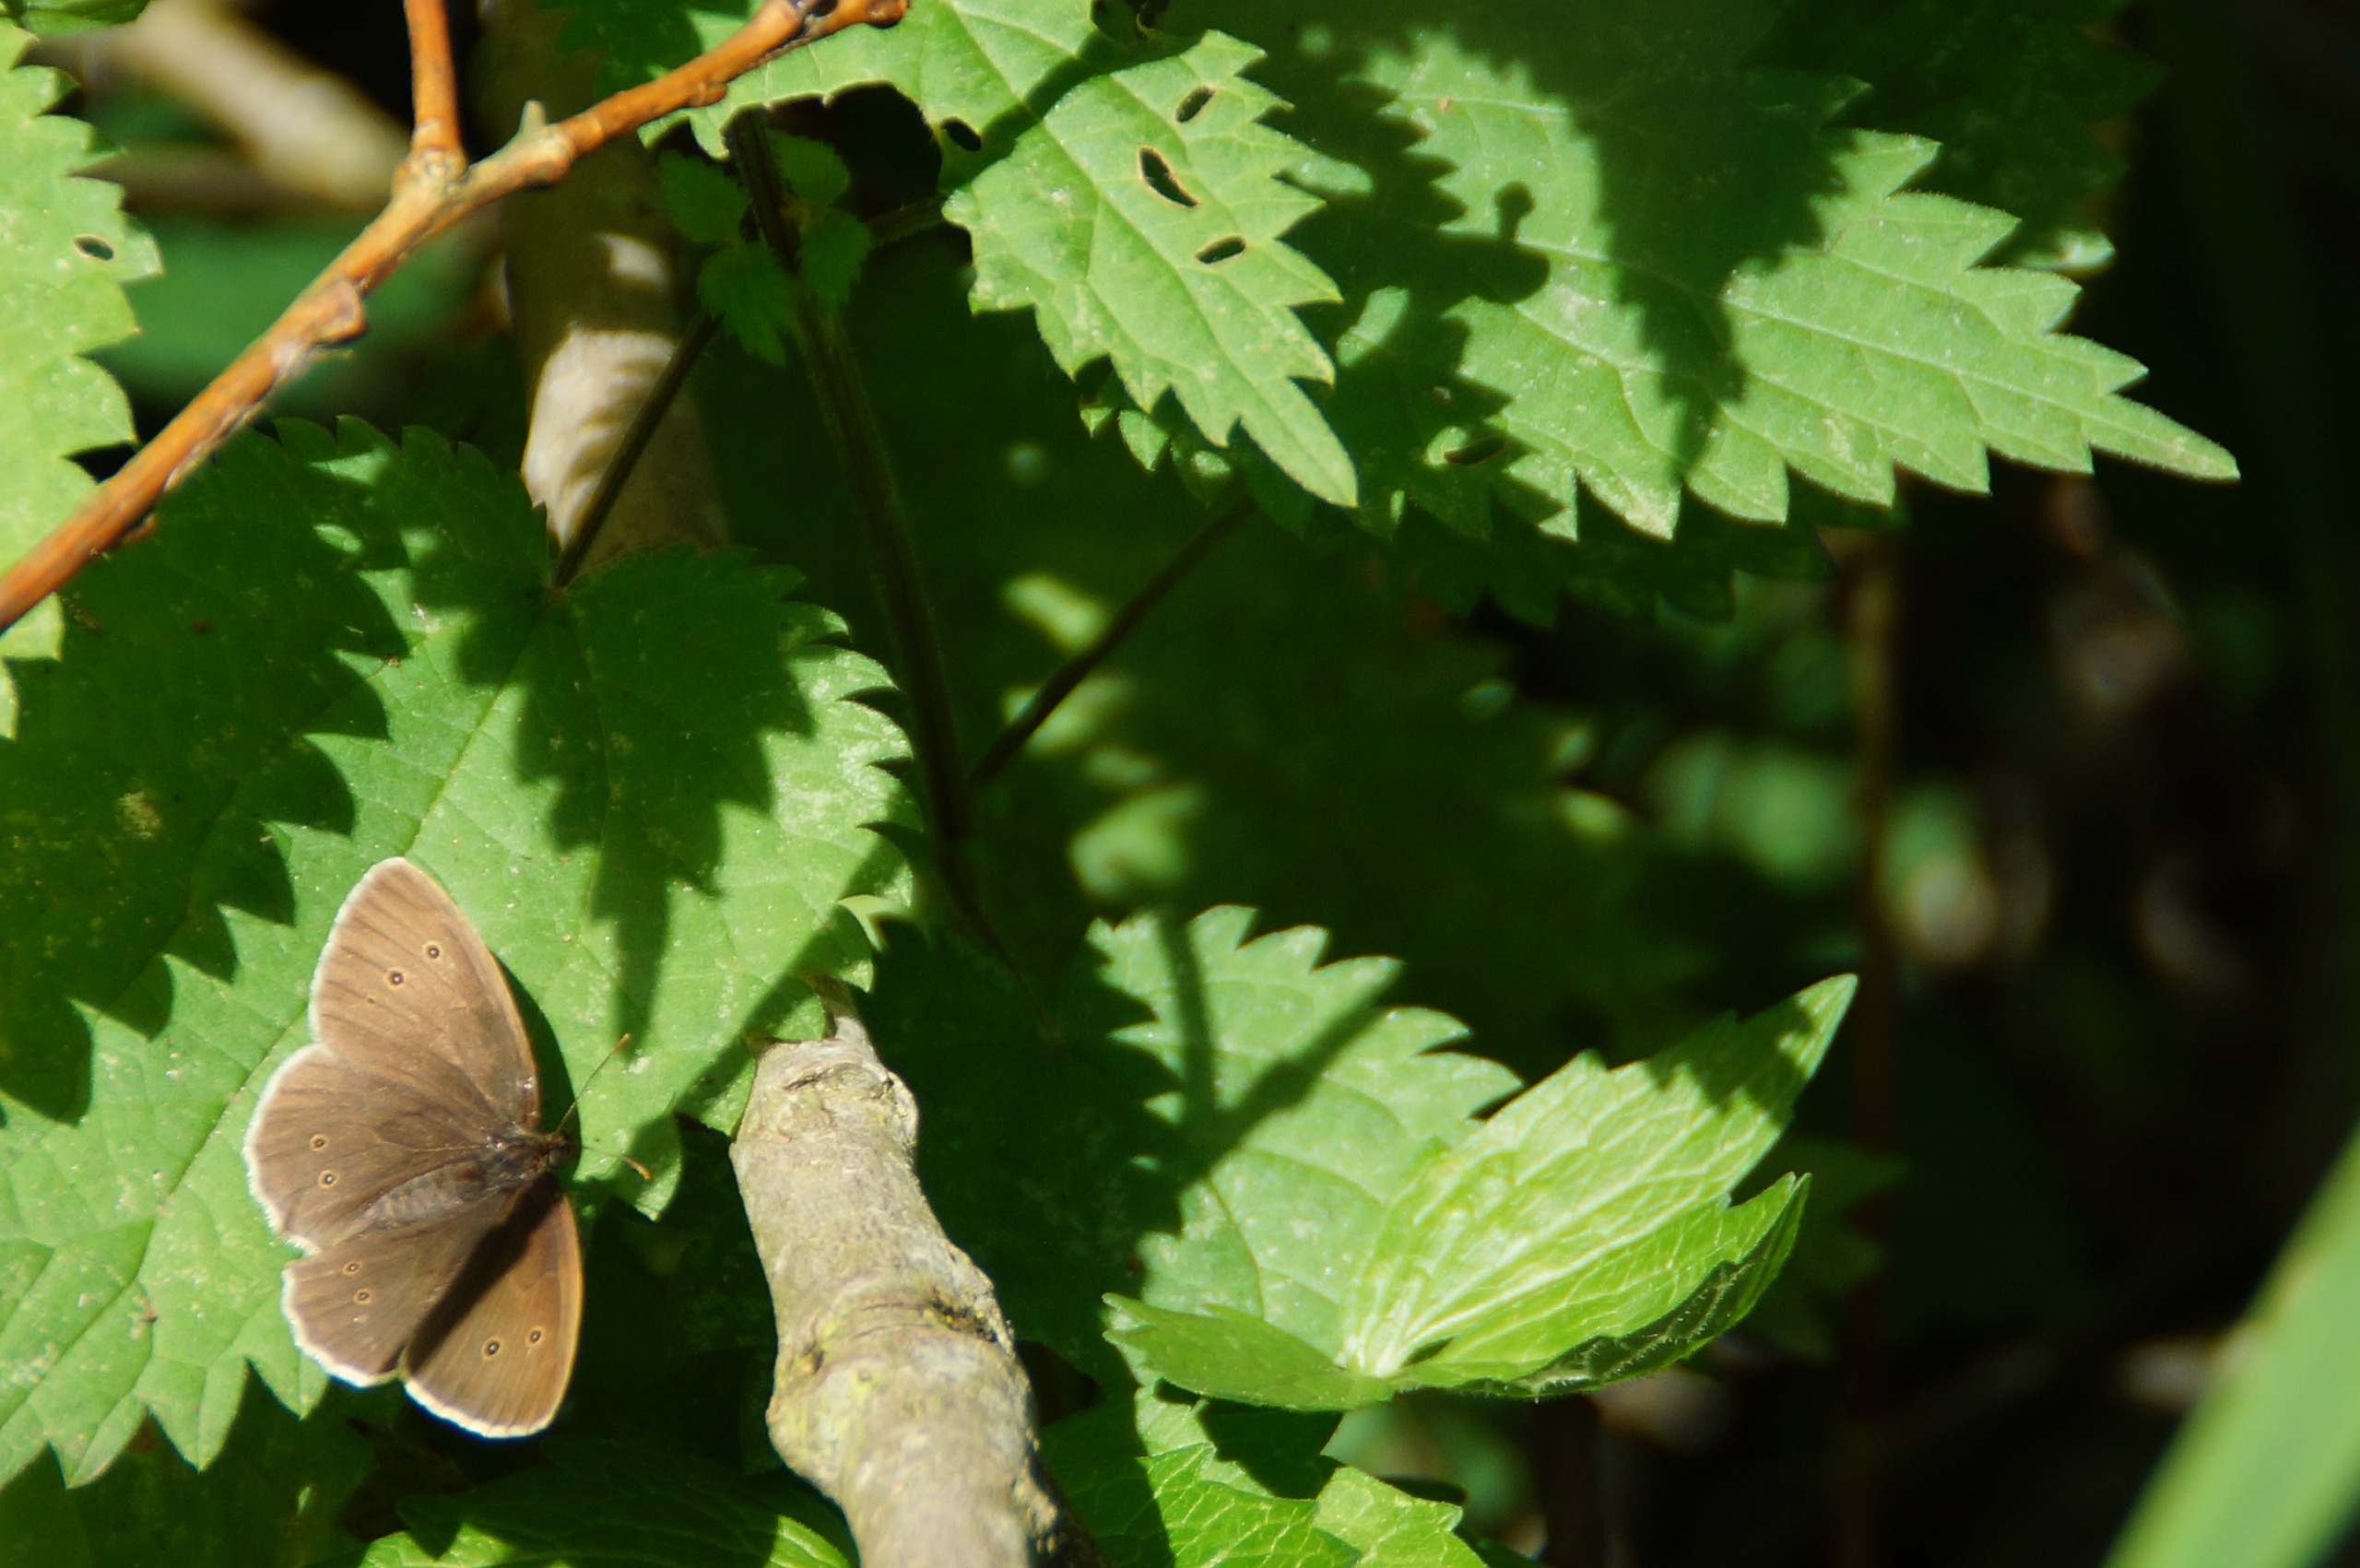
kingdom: Animalia
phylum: Arthropoda
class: Insecta
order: Lepidoptera
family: Nymphalidae
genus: Aphantopus
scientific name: Aphantopus hyperantus
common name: Engrandøje
